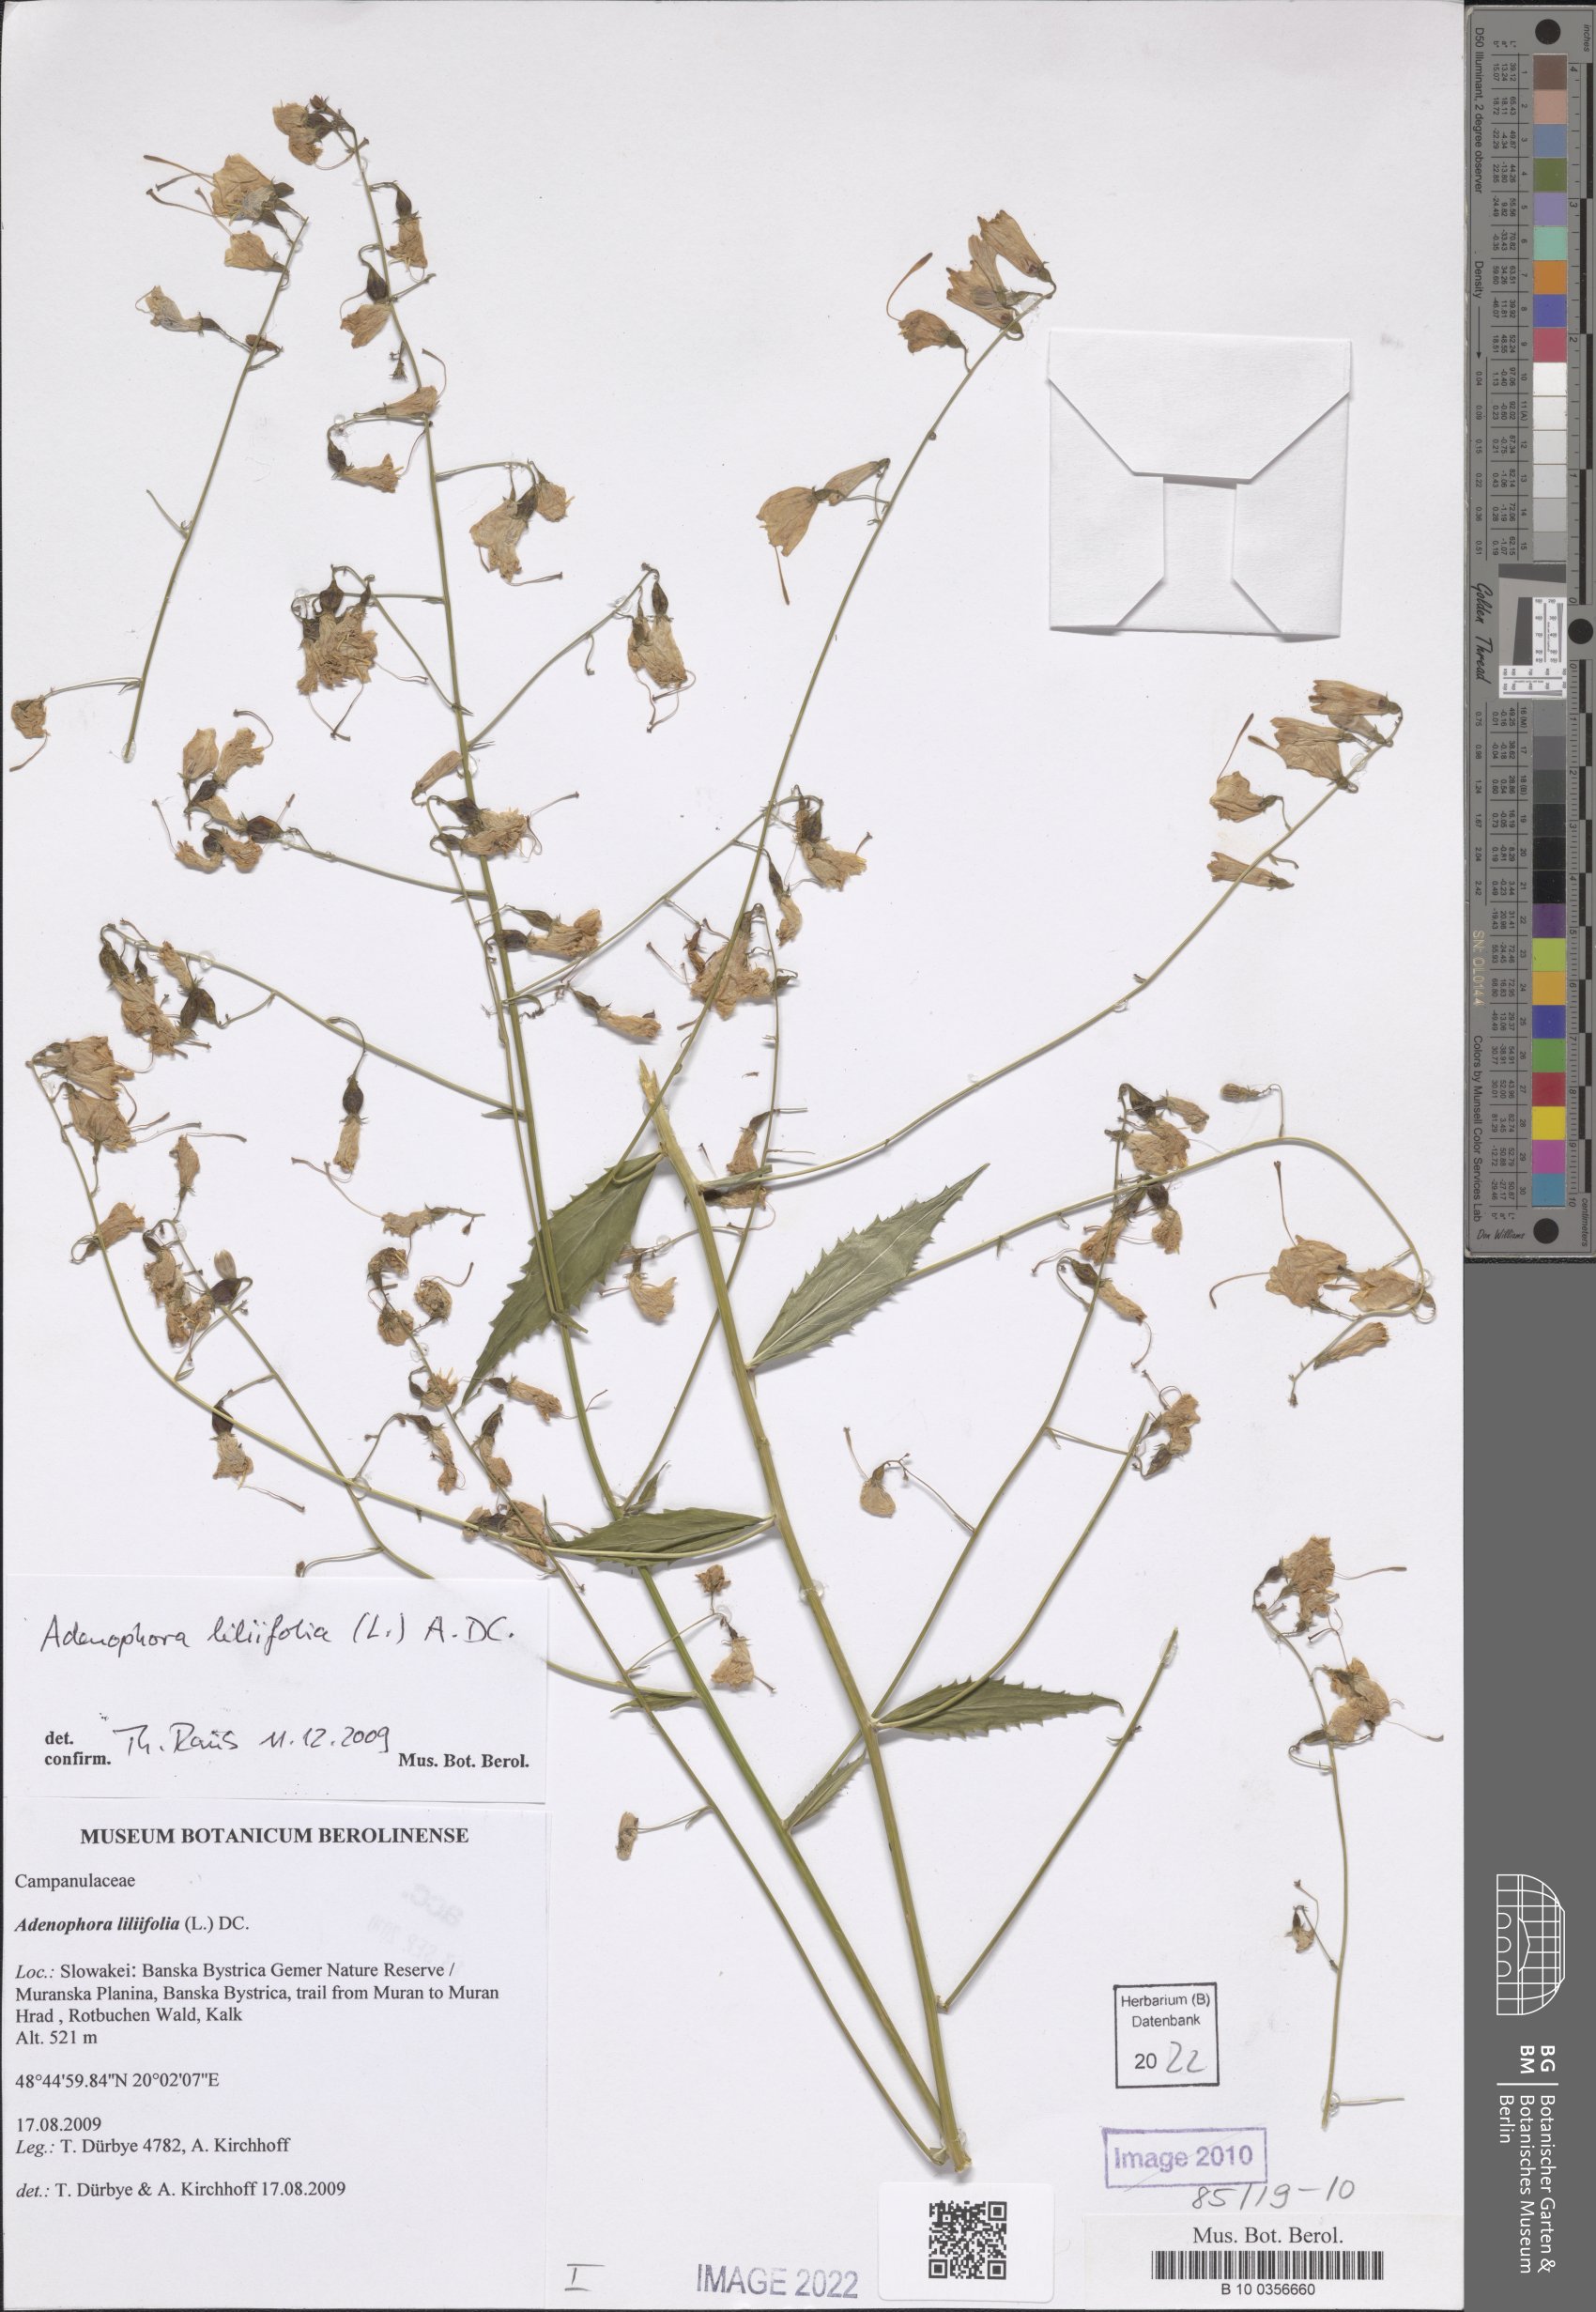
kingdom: Plantae
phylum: Tracheophyta
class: Magnoliopsida
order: Asterales
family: Campanulaceae
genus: Adenophora
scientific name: Adenophora liliifolia
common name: Lilyleaf ladybells
